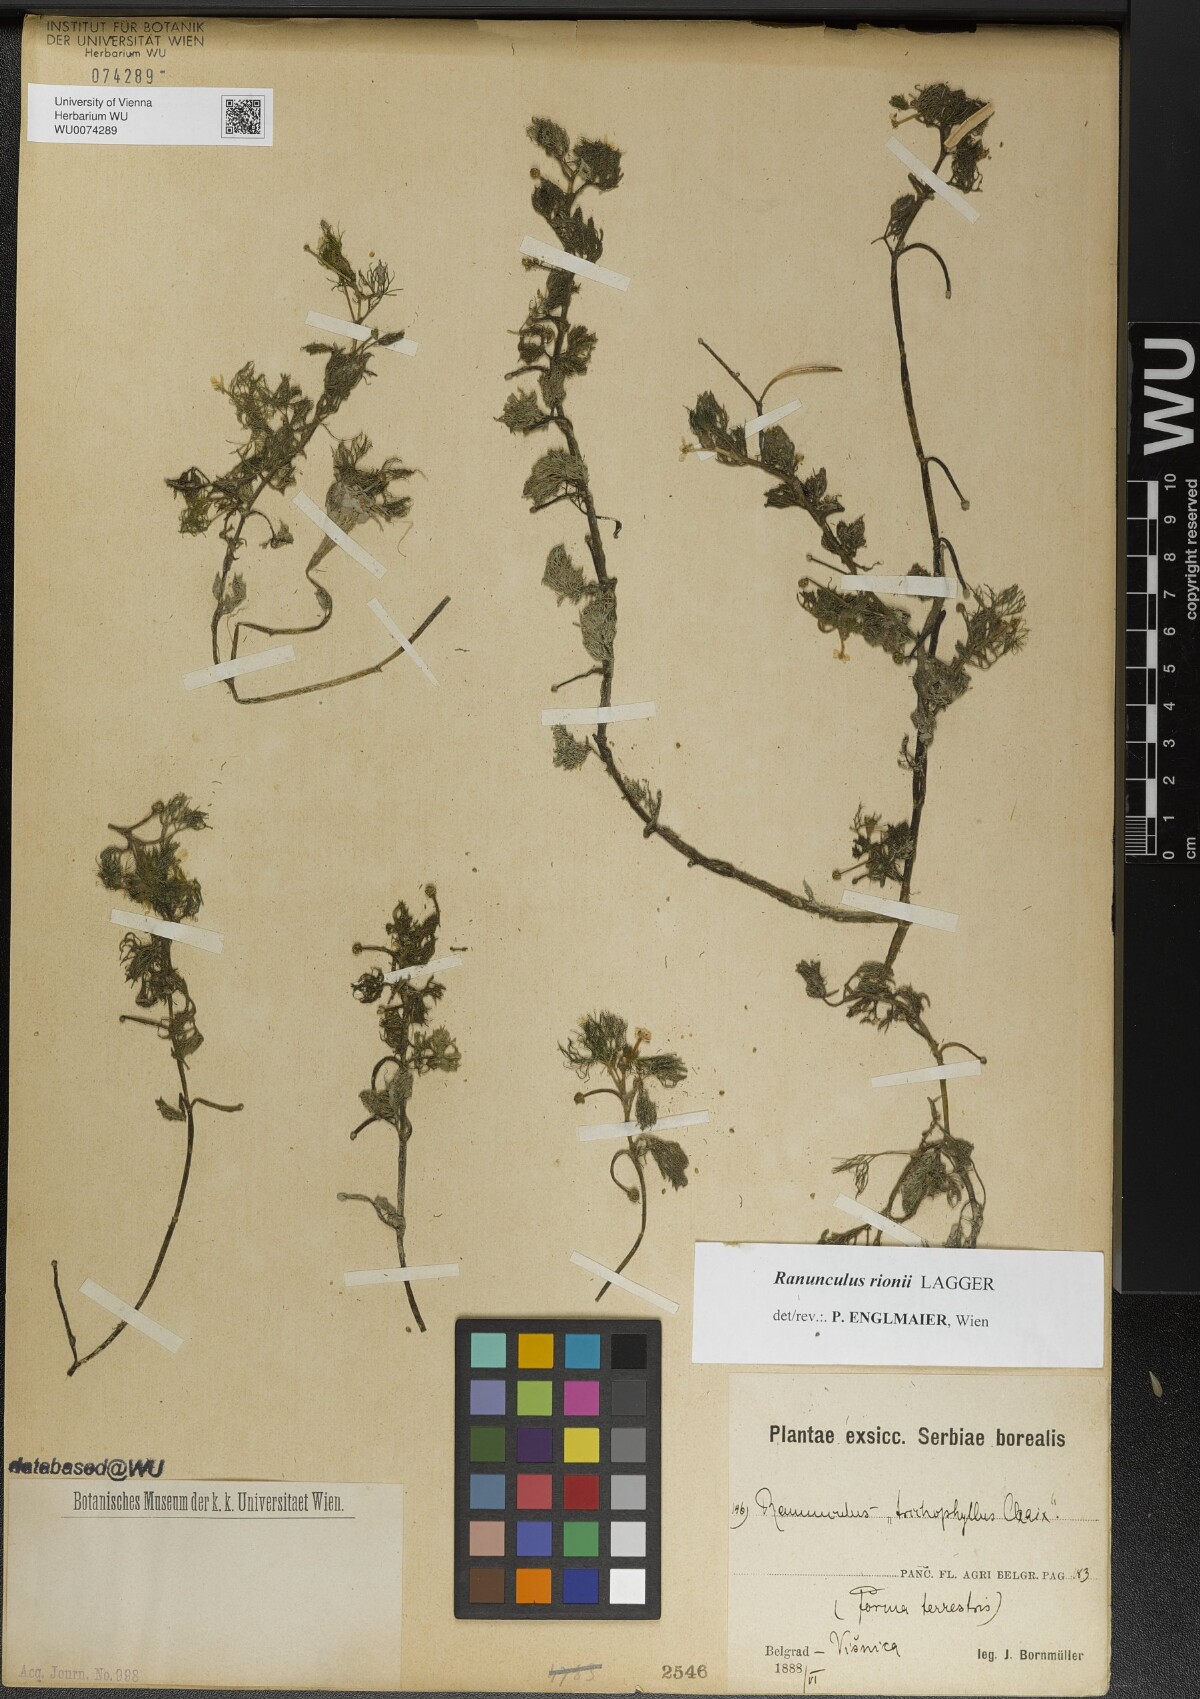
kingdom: Plantae
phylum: Tracheophyta
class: Magnoliopsida
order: Ranunculales
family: Ranunculaceae
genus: Ranunculus
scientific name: Ranunculus rionii
